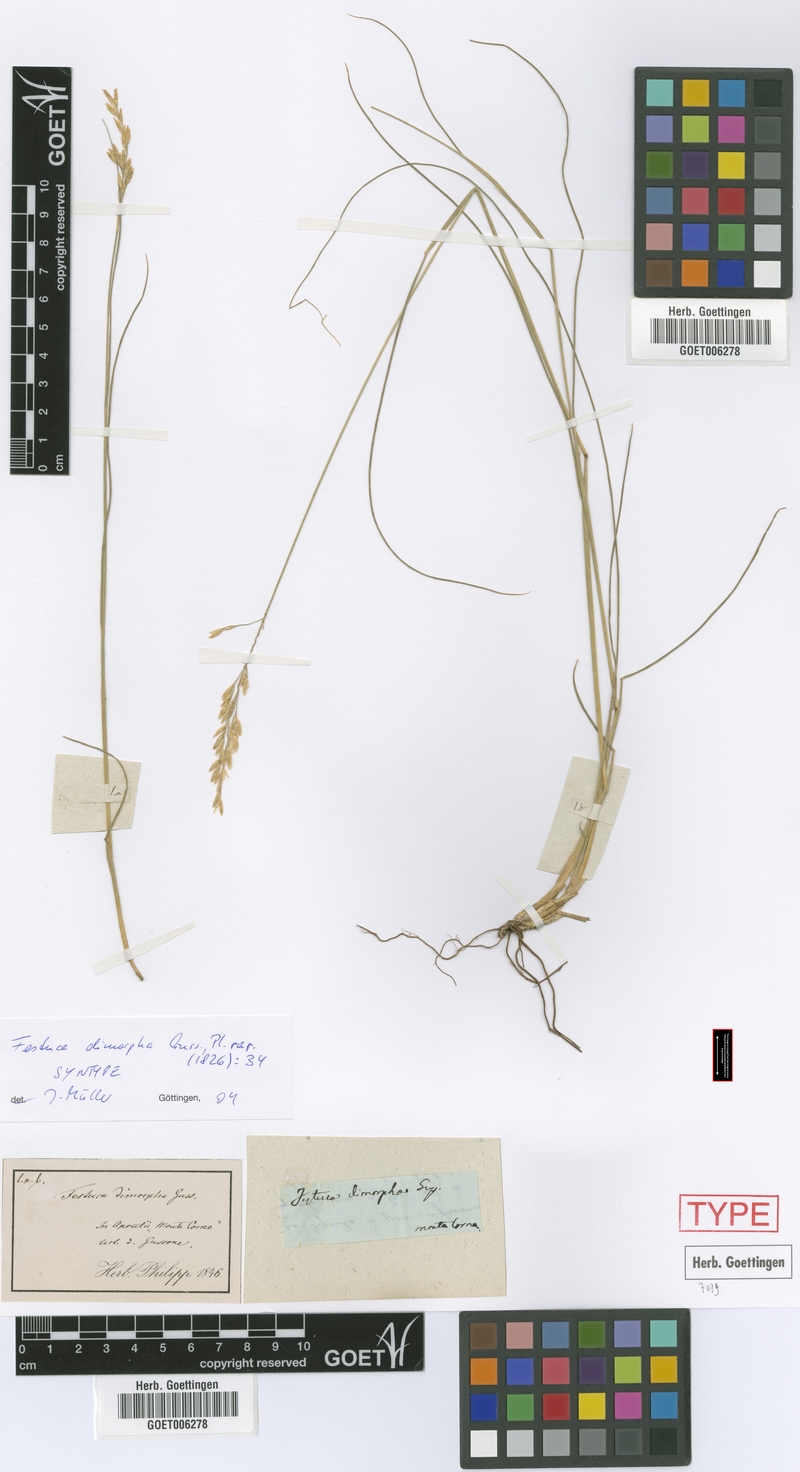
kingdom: Plantae
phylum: Tracheophyta
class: Liliopsida
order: Poales
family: Poaceae
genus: Festuca
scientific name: Festuca dimorpha
